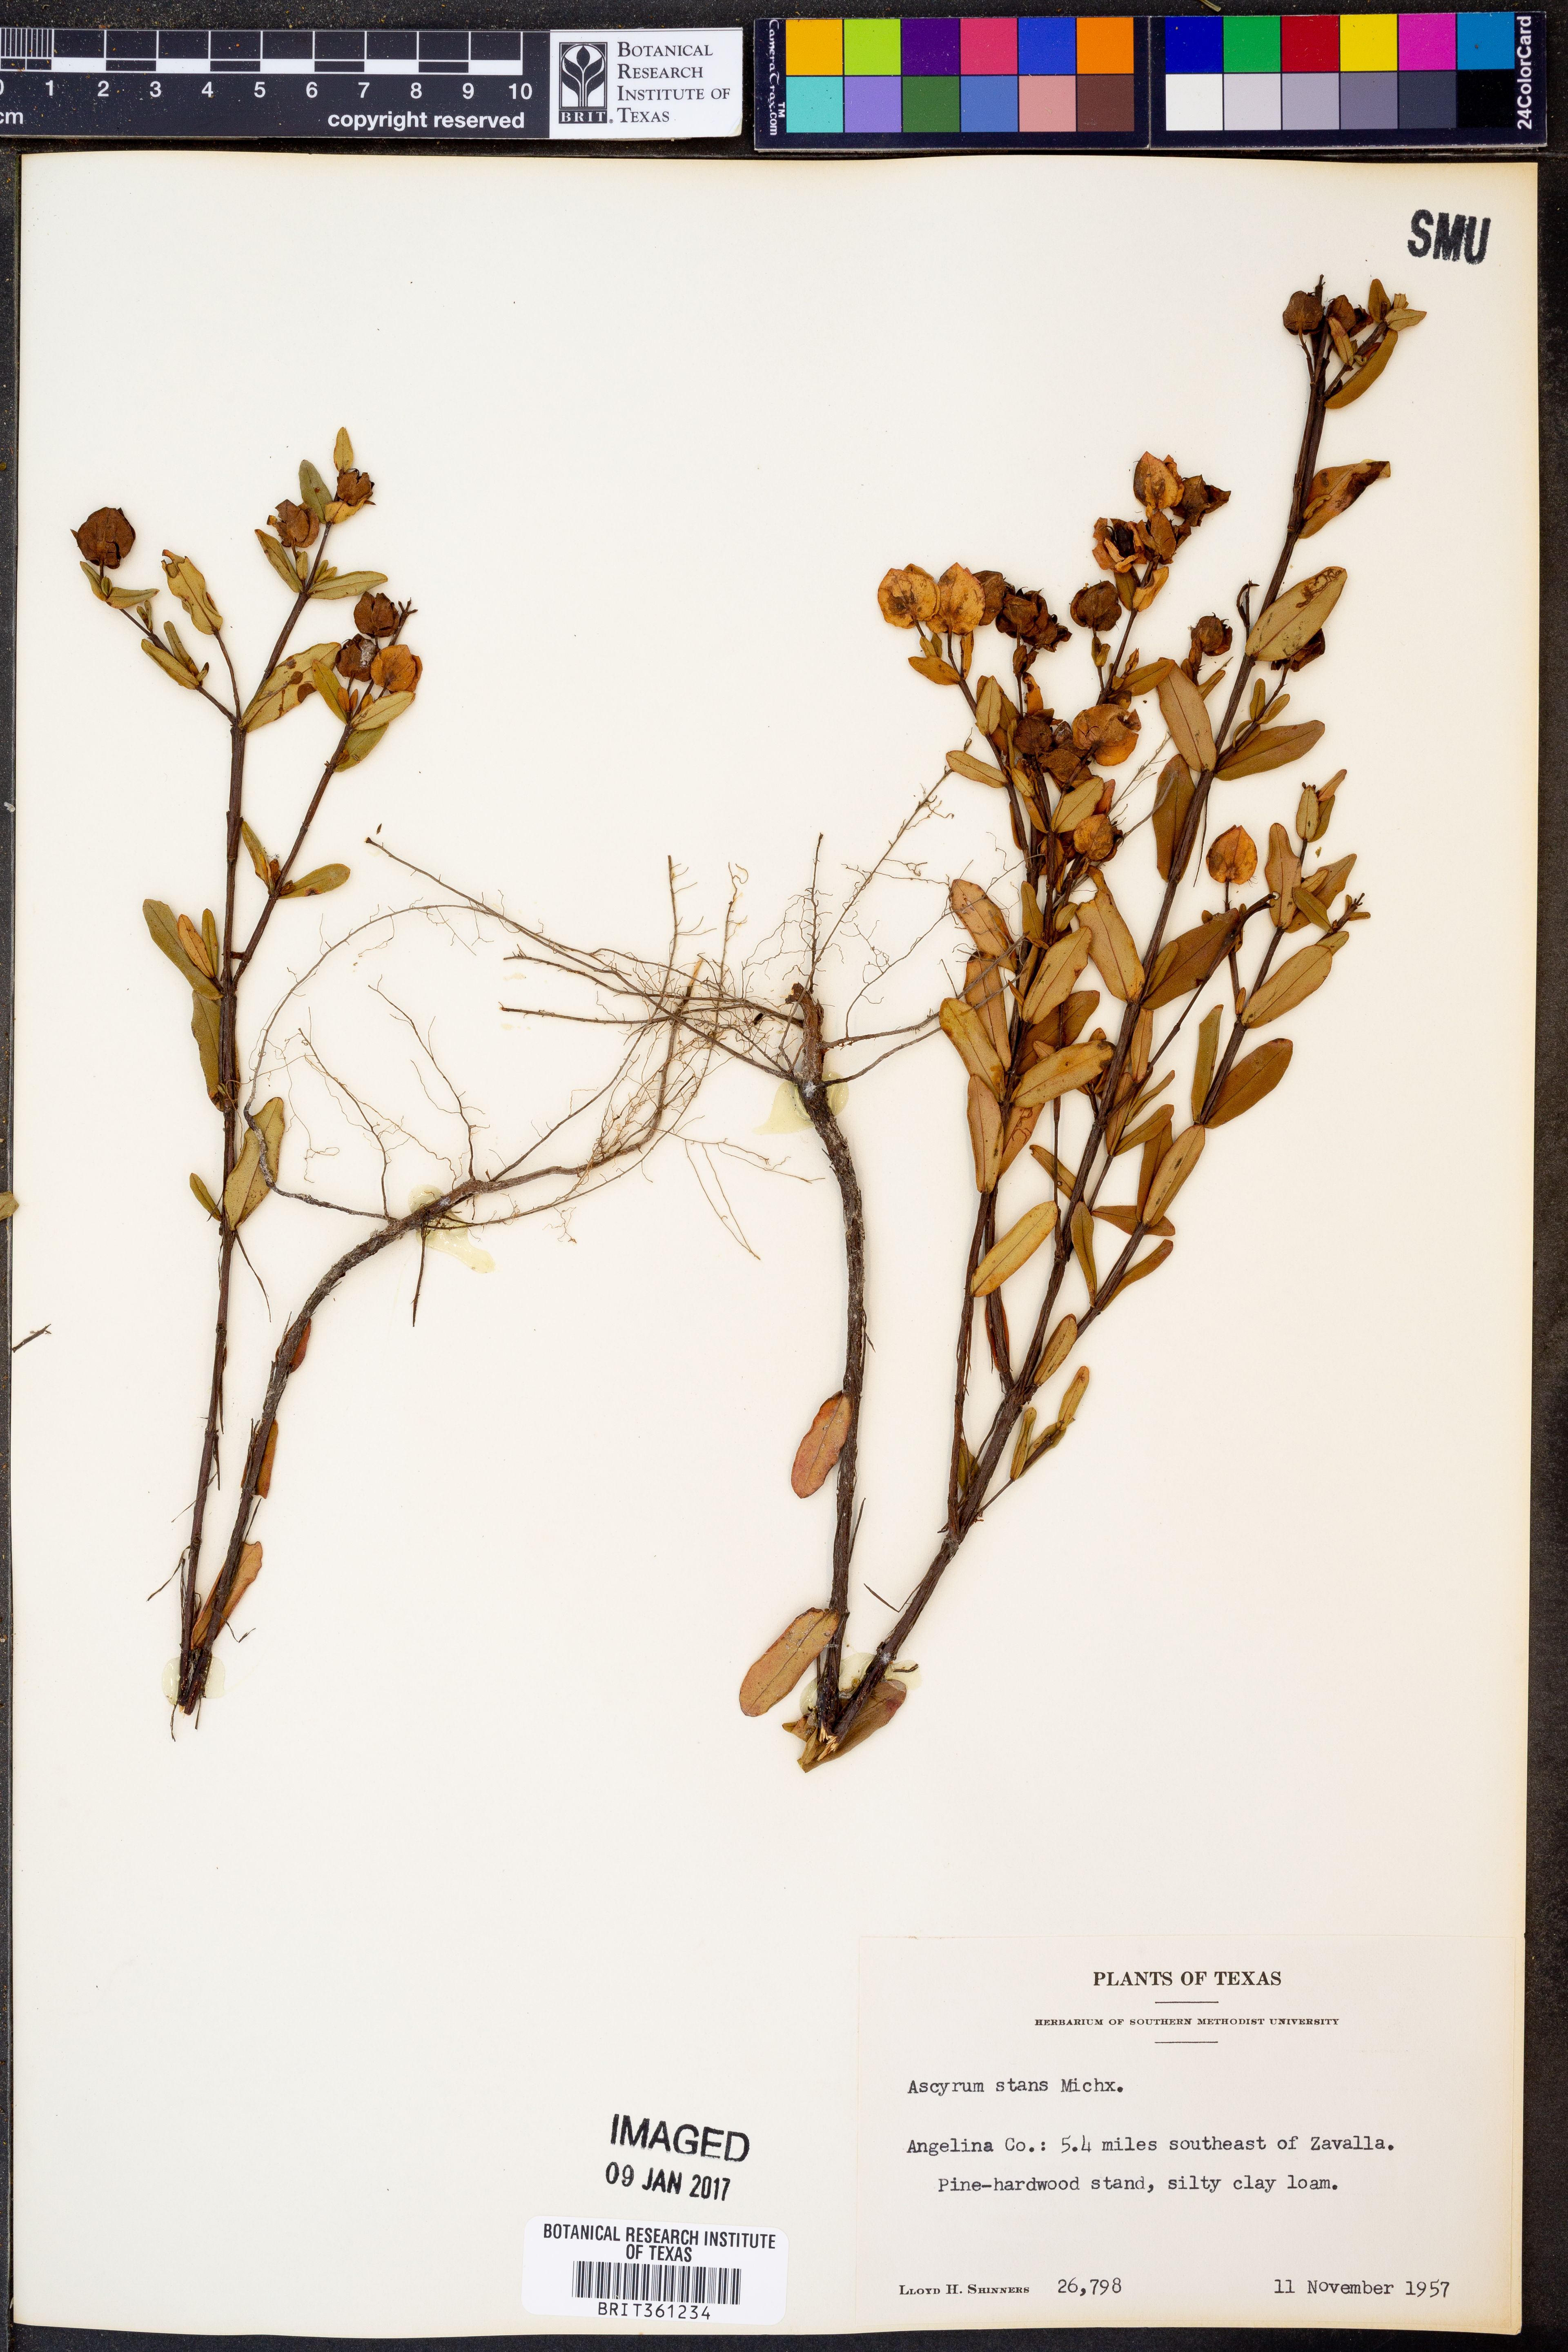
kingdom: Plantae
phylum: Tracheophyta
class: Magnoliopsida
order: Malpighiales
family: Hypericaceae
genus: Hypericum
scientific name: Hypericum crux-andreae
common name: St.-peter's-wort
